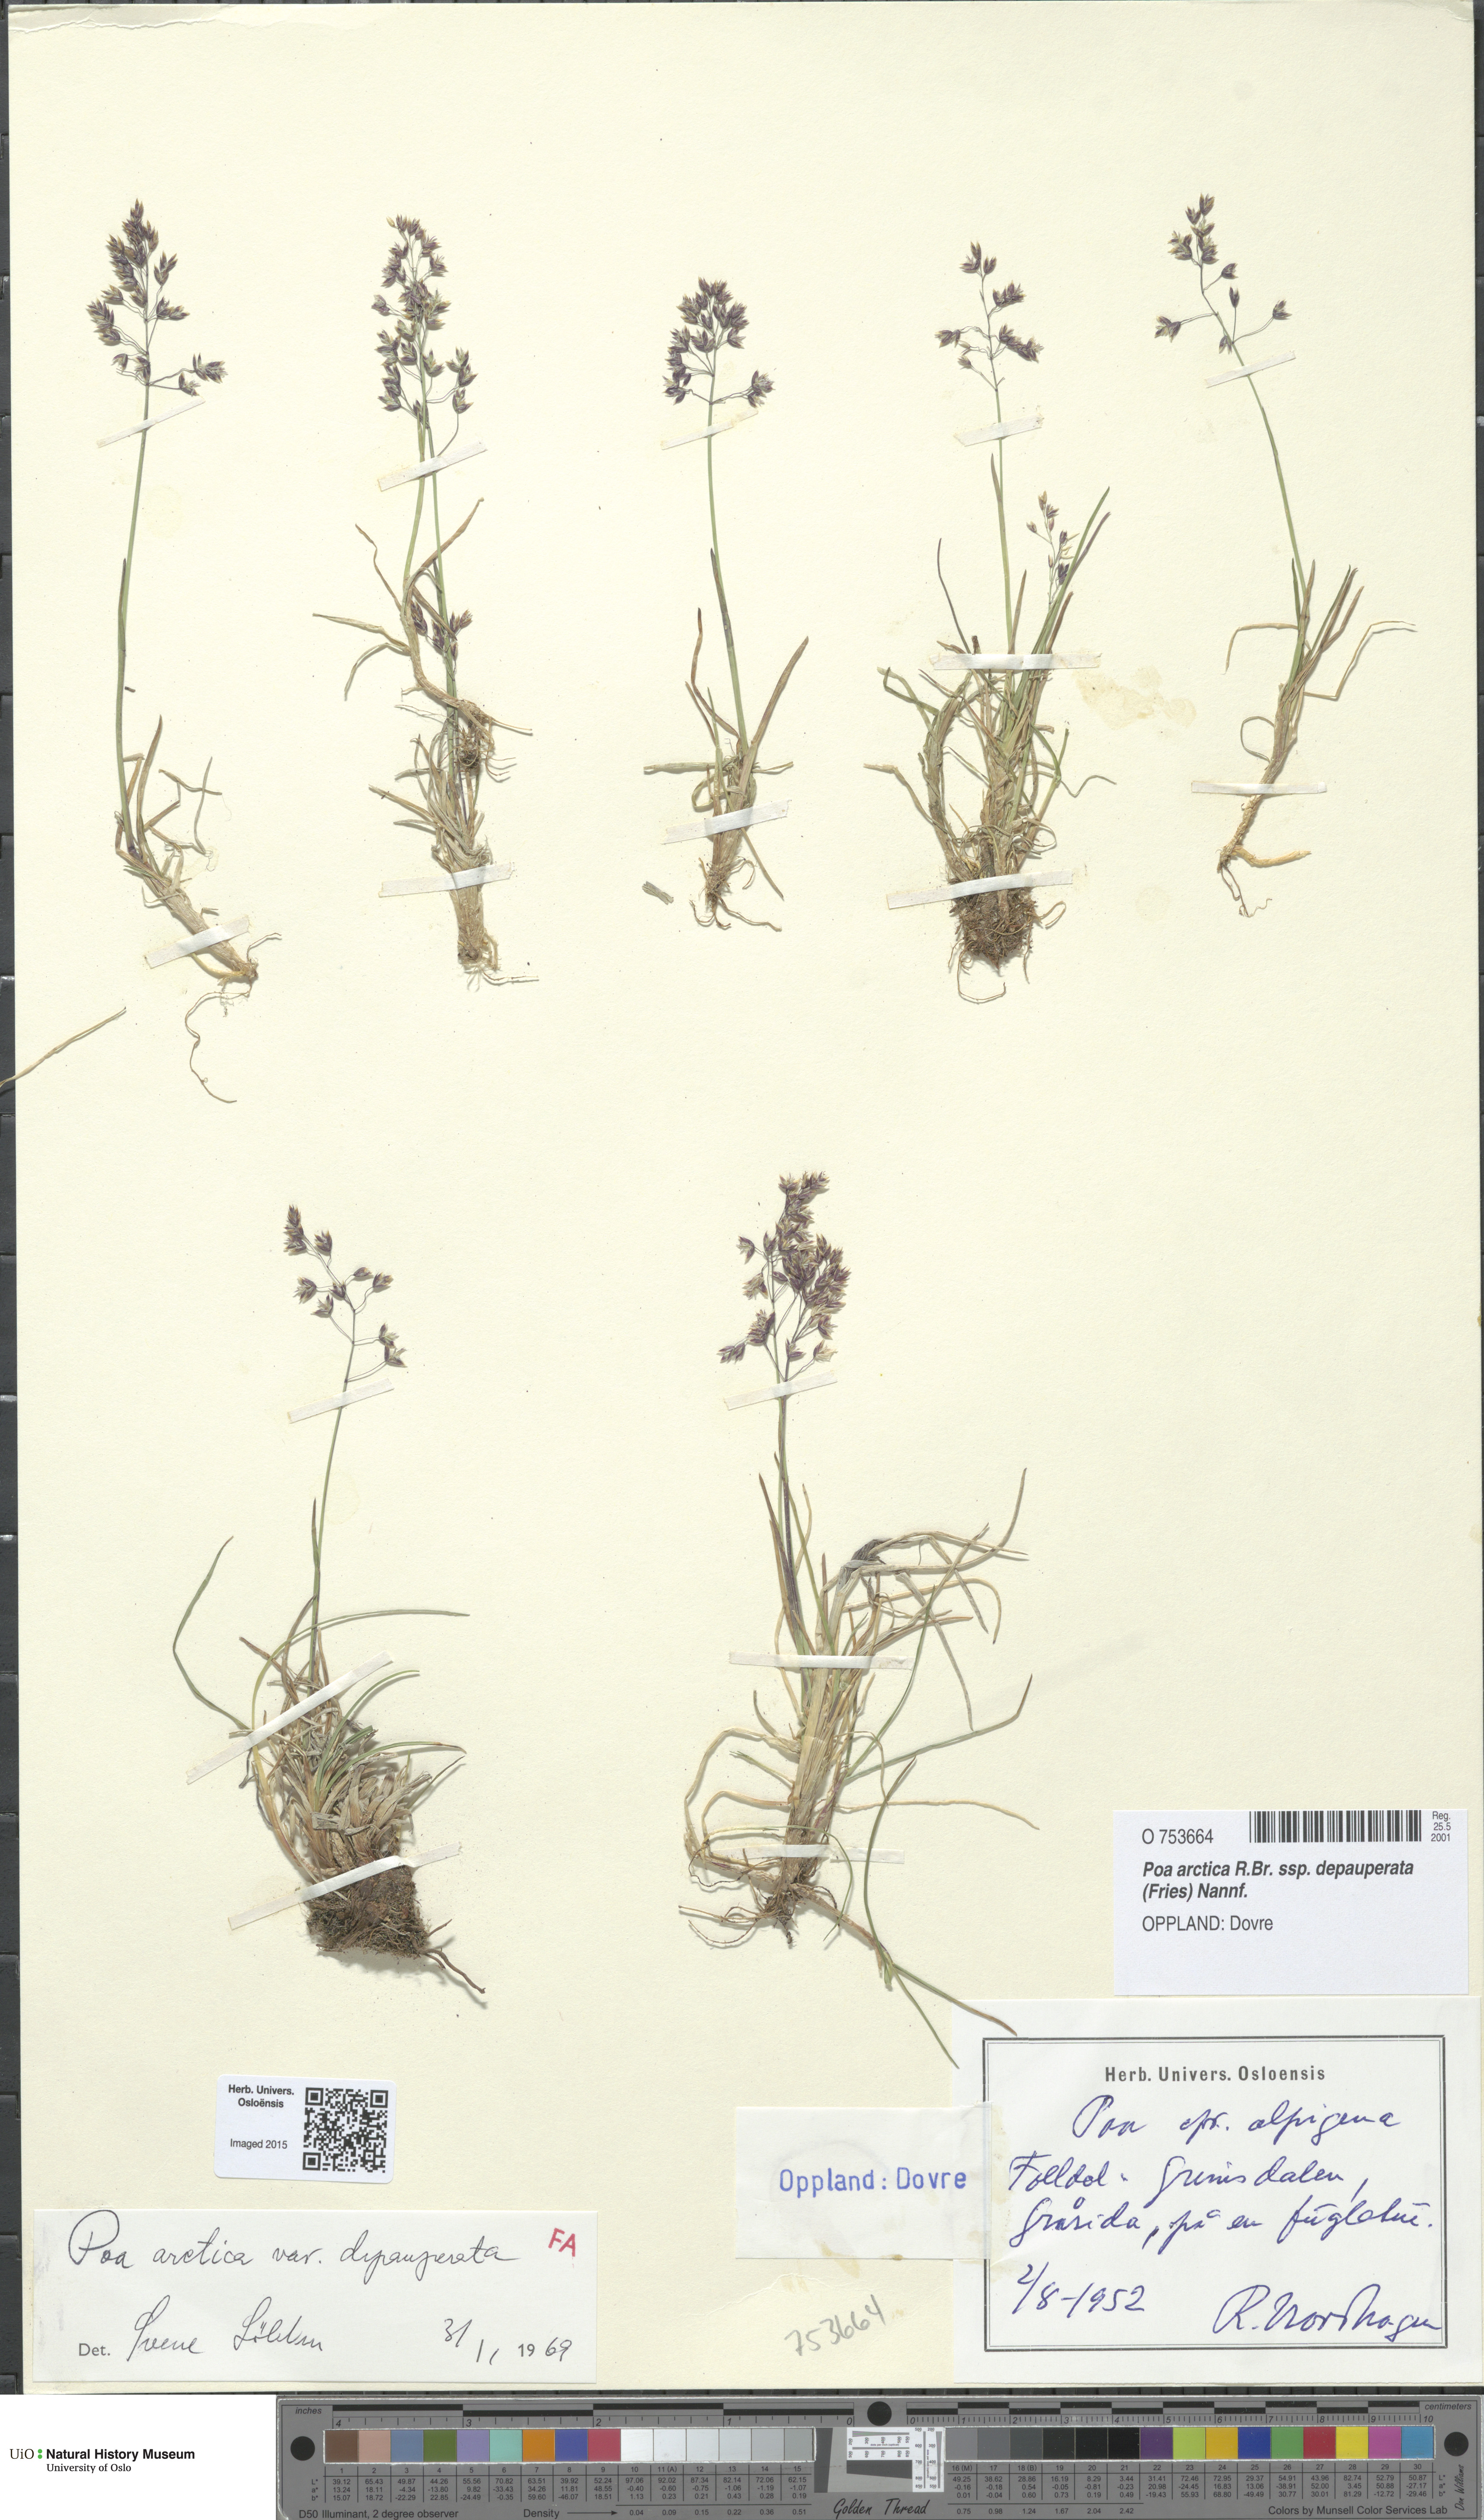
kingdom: Plantae
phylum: Tracheophyta
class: Liliopsida
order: Poales
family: Poaceae
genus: Poa
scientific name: Poa arctica
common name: Arctic bluegrass
